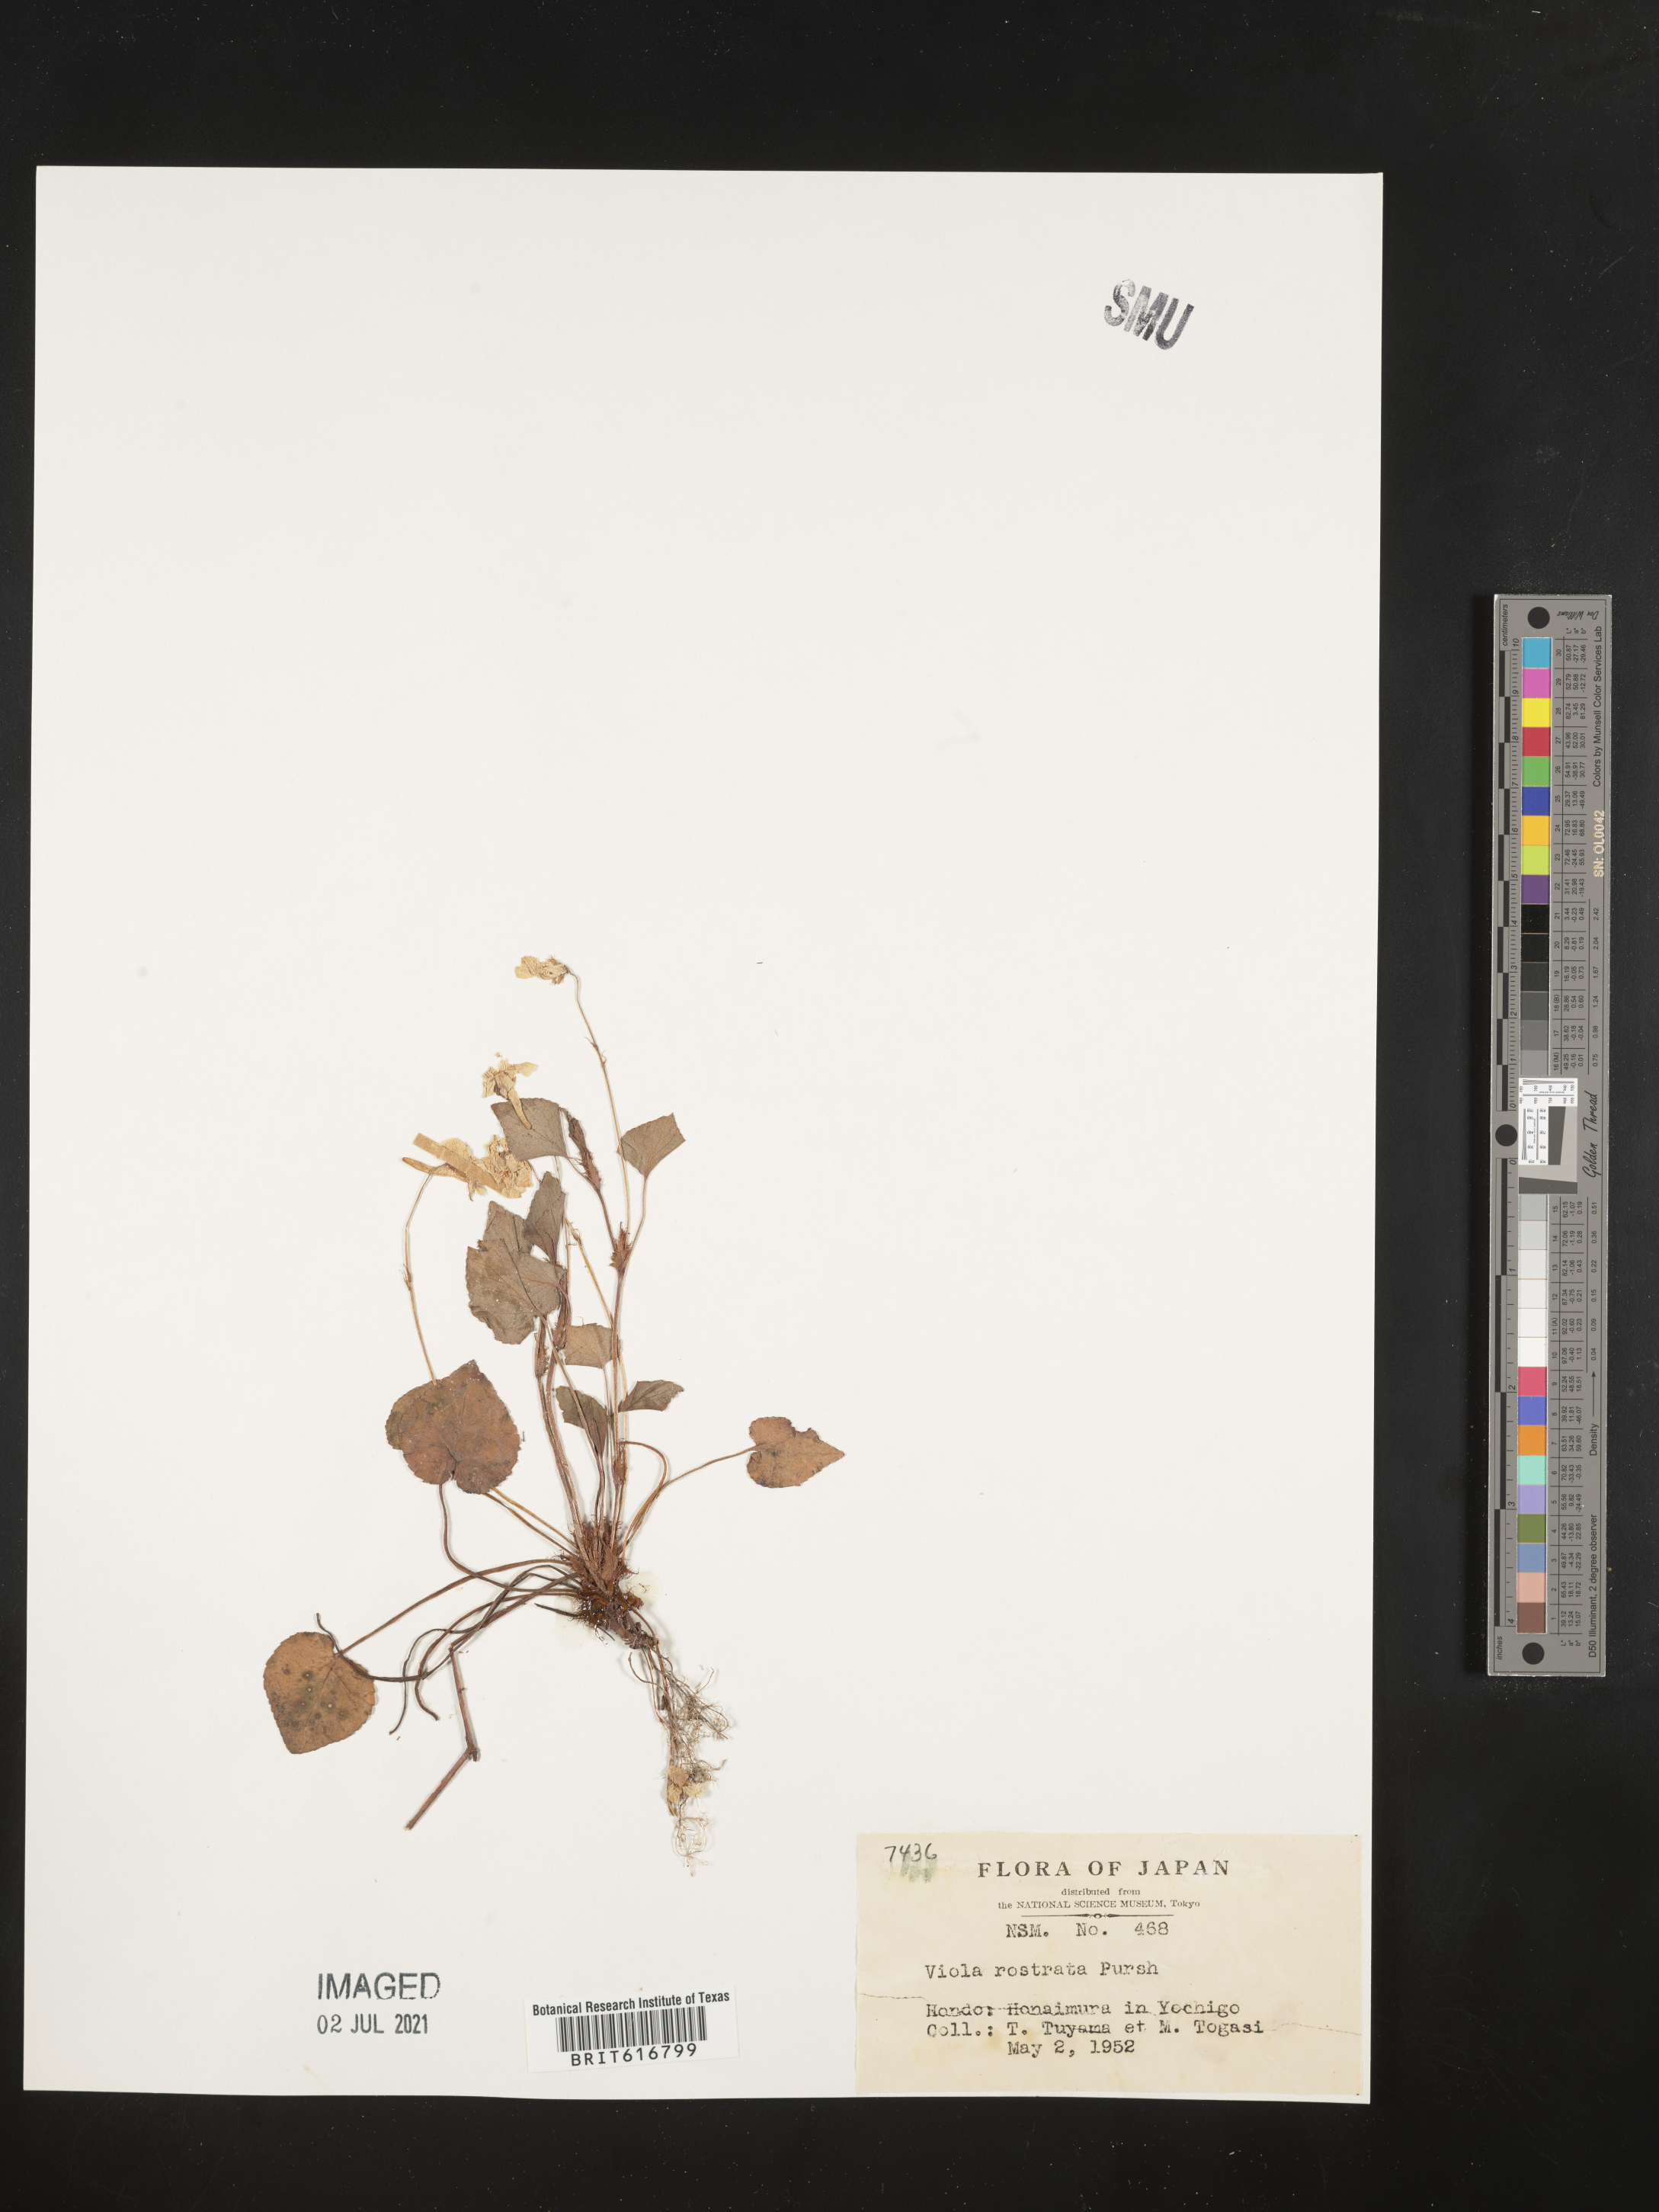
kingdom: Plantae
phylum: Tracheophyta
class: Magnoliopsida
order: Malpighiales
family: Violaceae
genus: Viola
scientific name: Viola rostrata
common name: Long-spur violet
